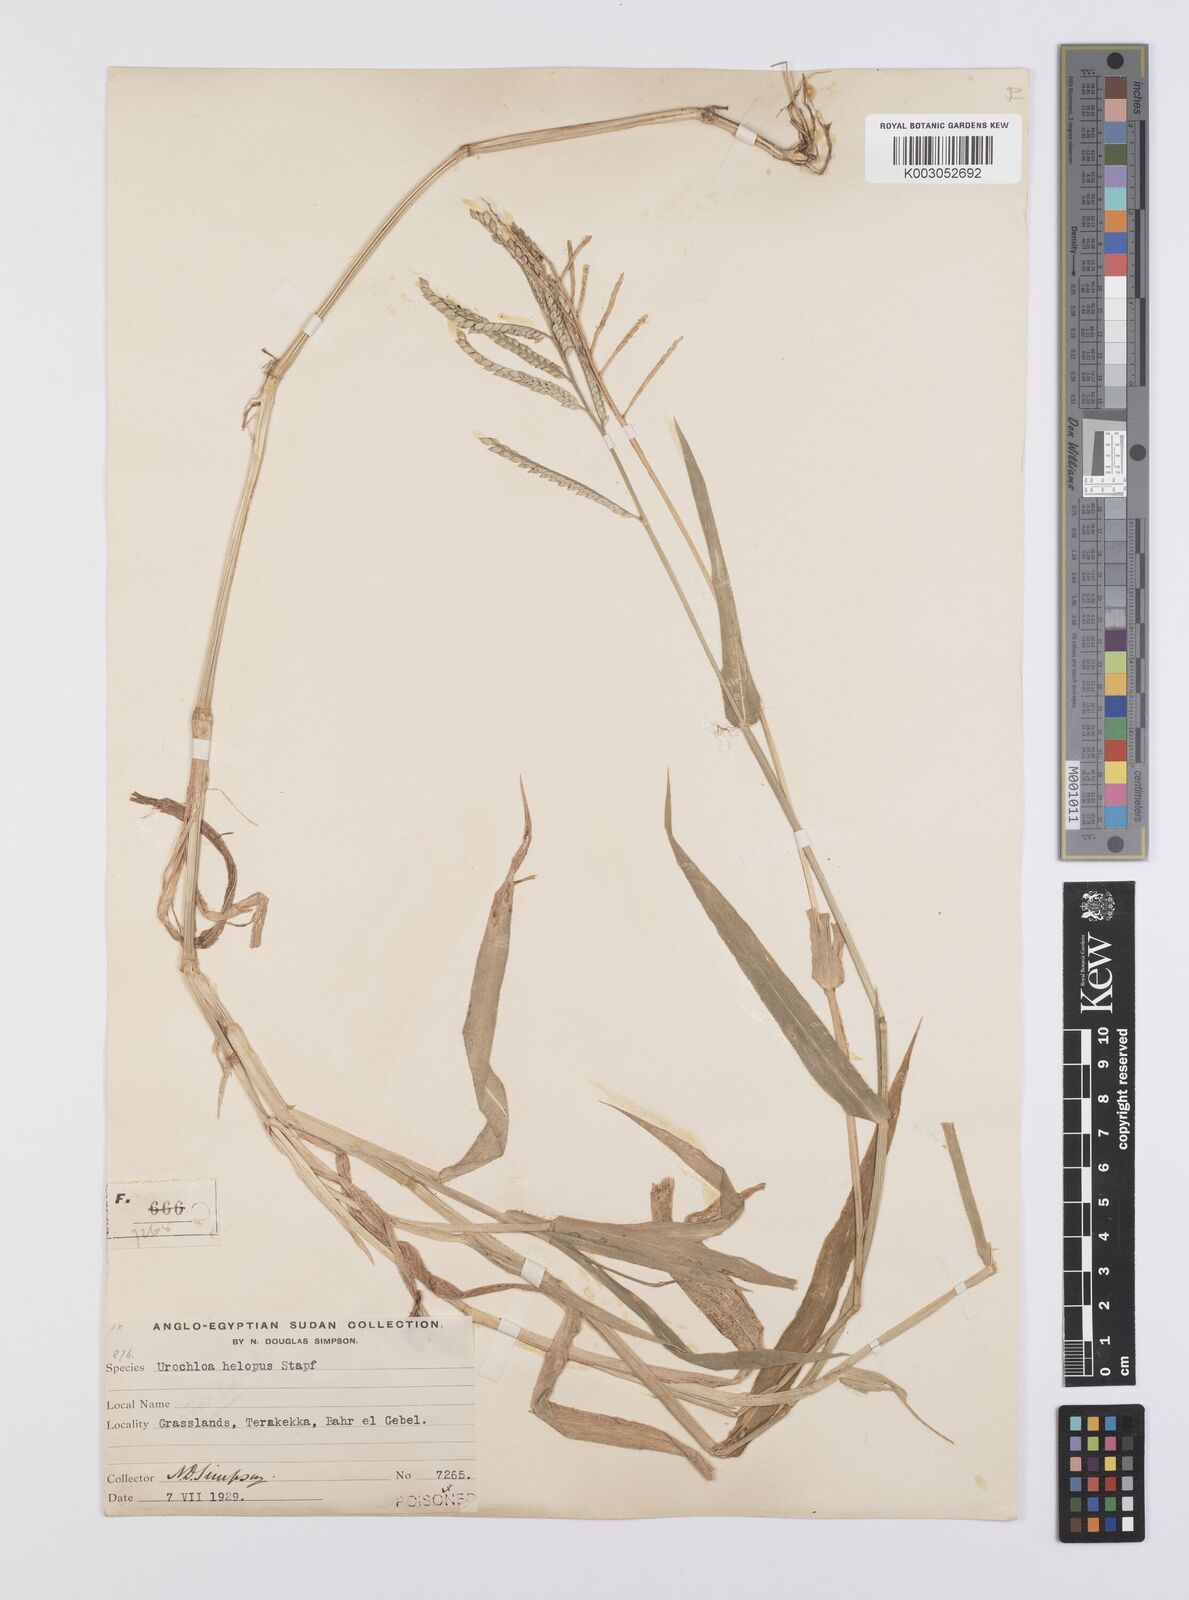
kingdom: Plantae
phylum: Tracheophyta
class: Liliopsida
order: Poales
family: Poaceae
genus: Urochloa
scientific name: Urochloa panicoides
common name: Sharp-flowered signal-grass
